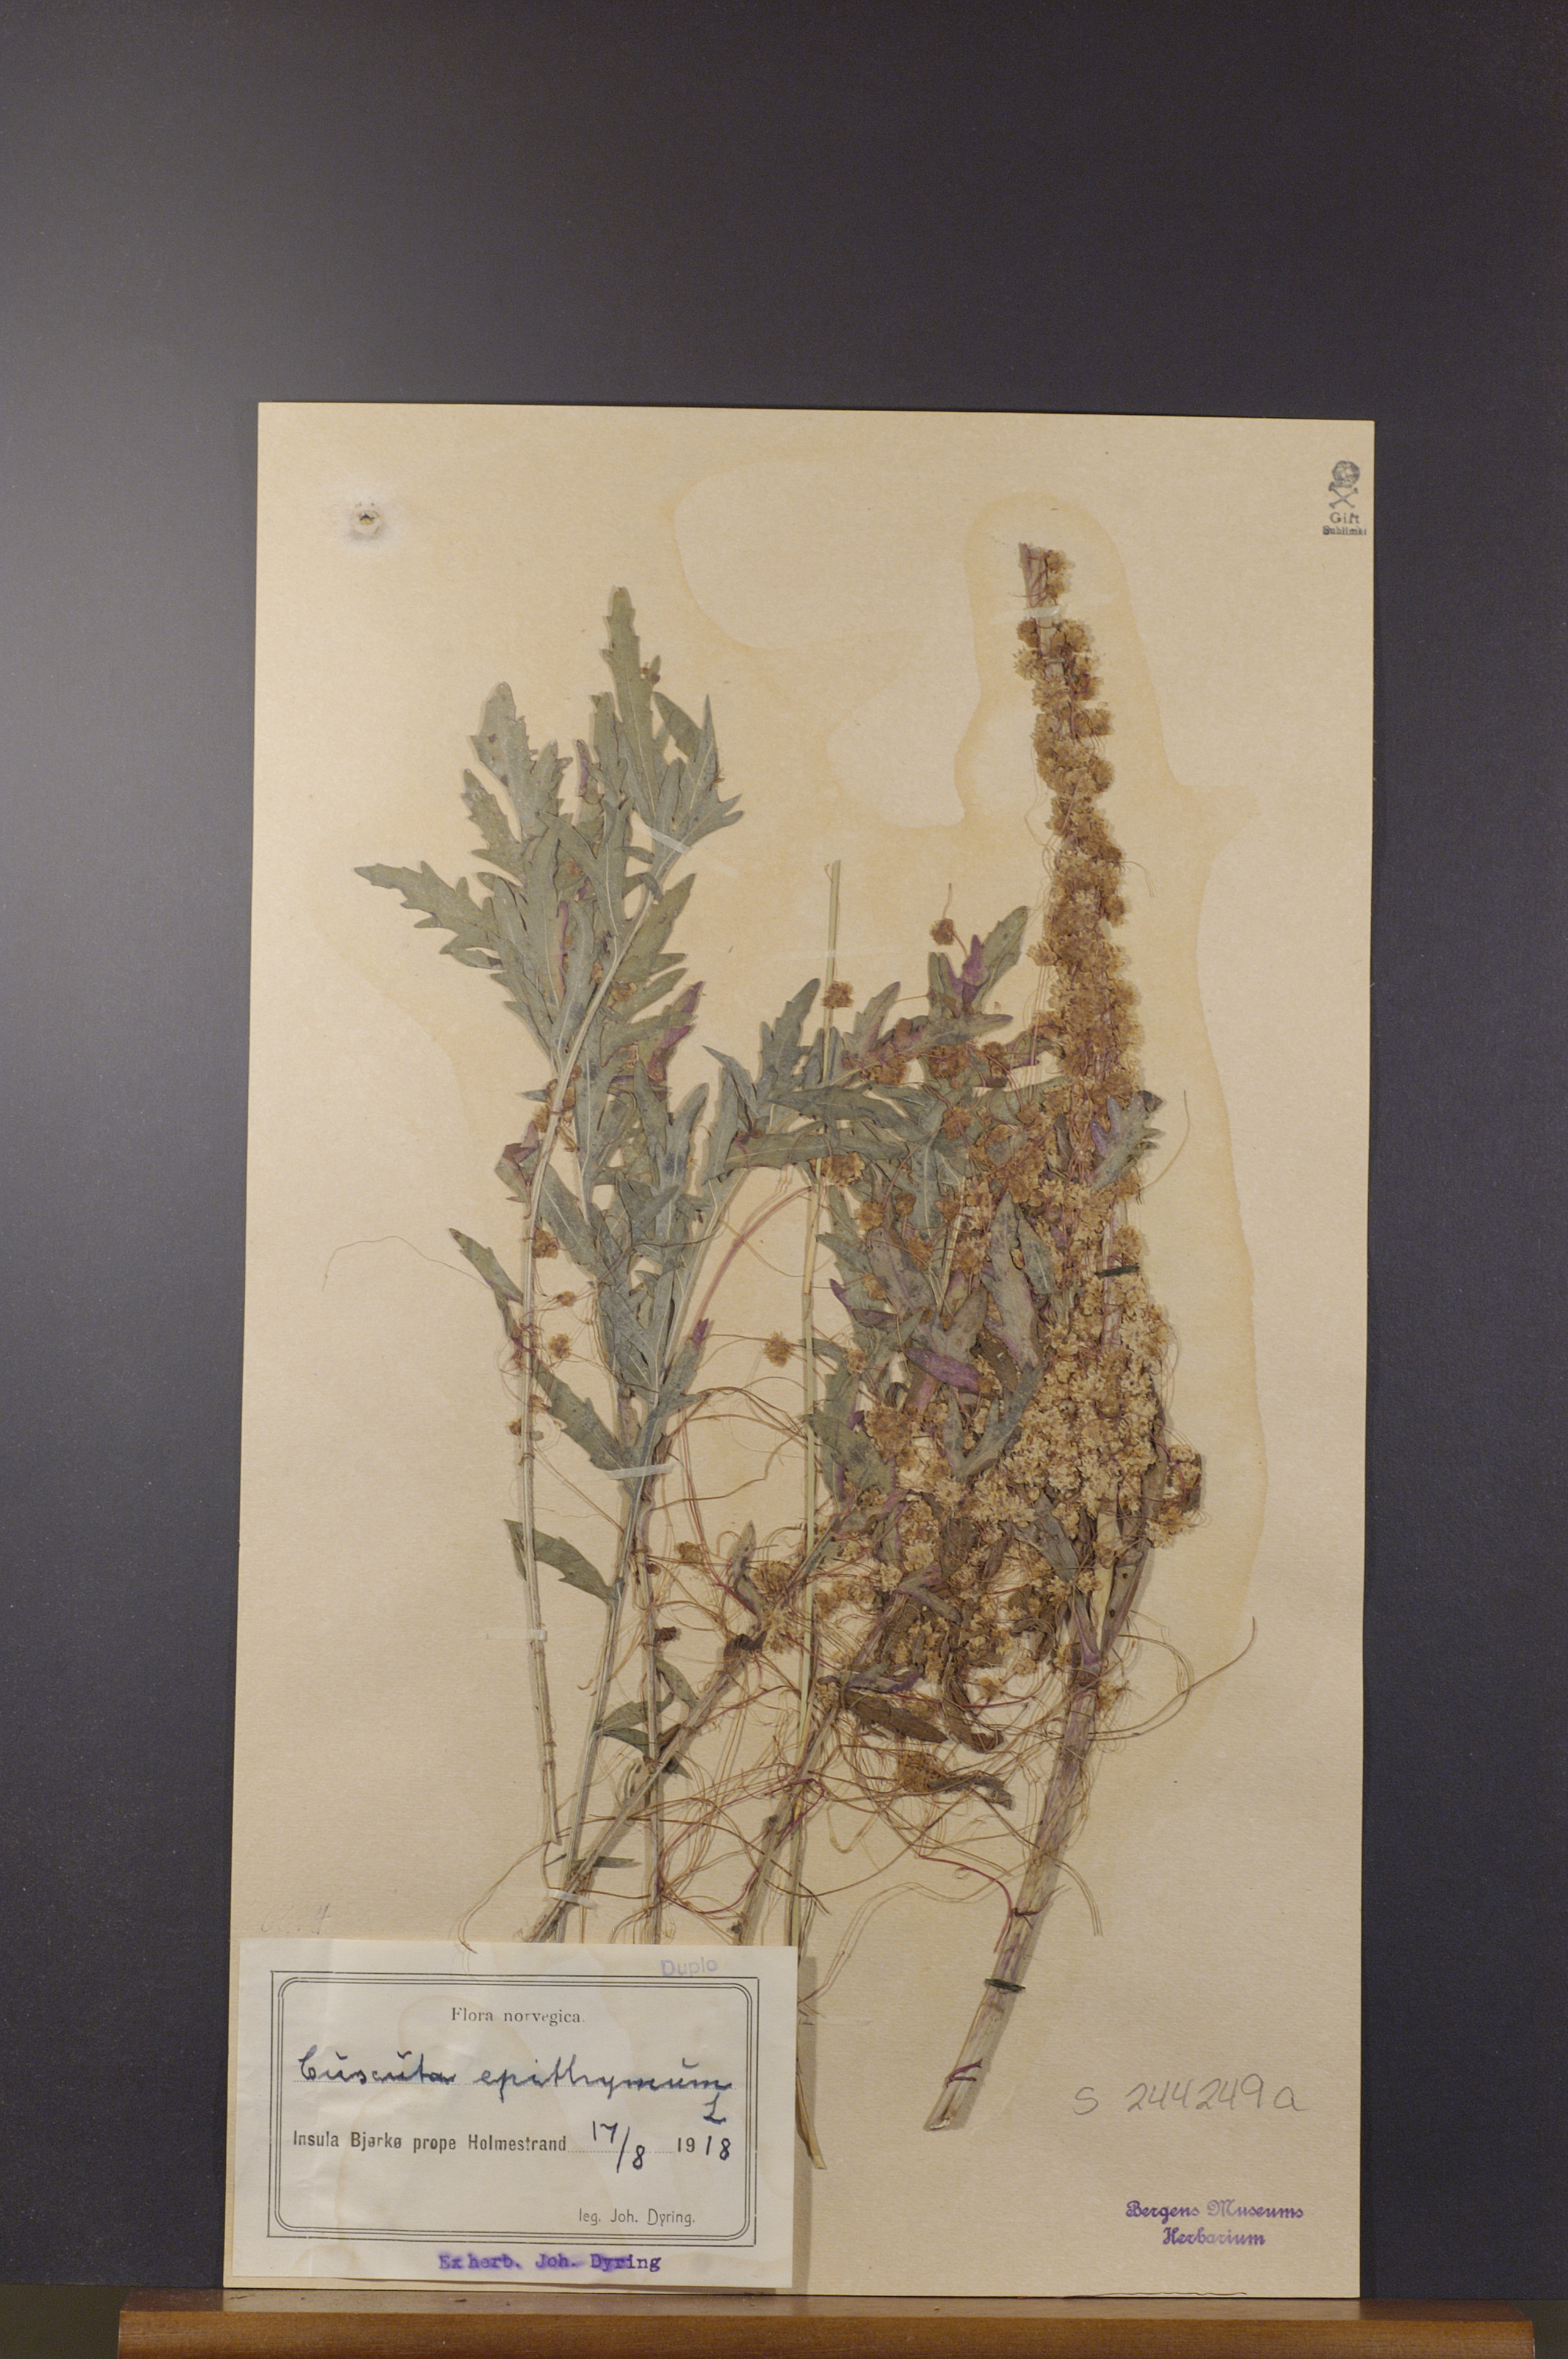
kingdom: Plantae
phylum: Tracheophyta
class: Magnoliopsida
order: Solanales
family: Convolvulaceae
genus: Cuscuta
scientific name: Cuscuta epithymum
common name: Clover dodder
